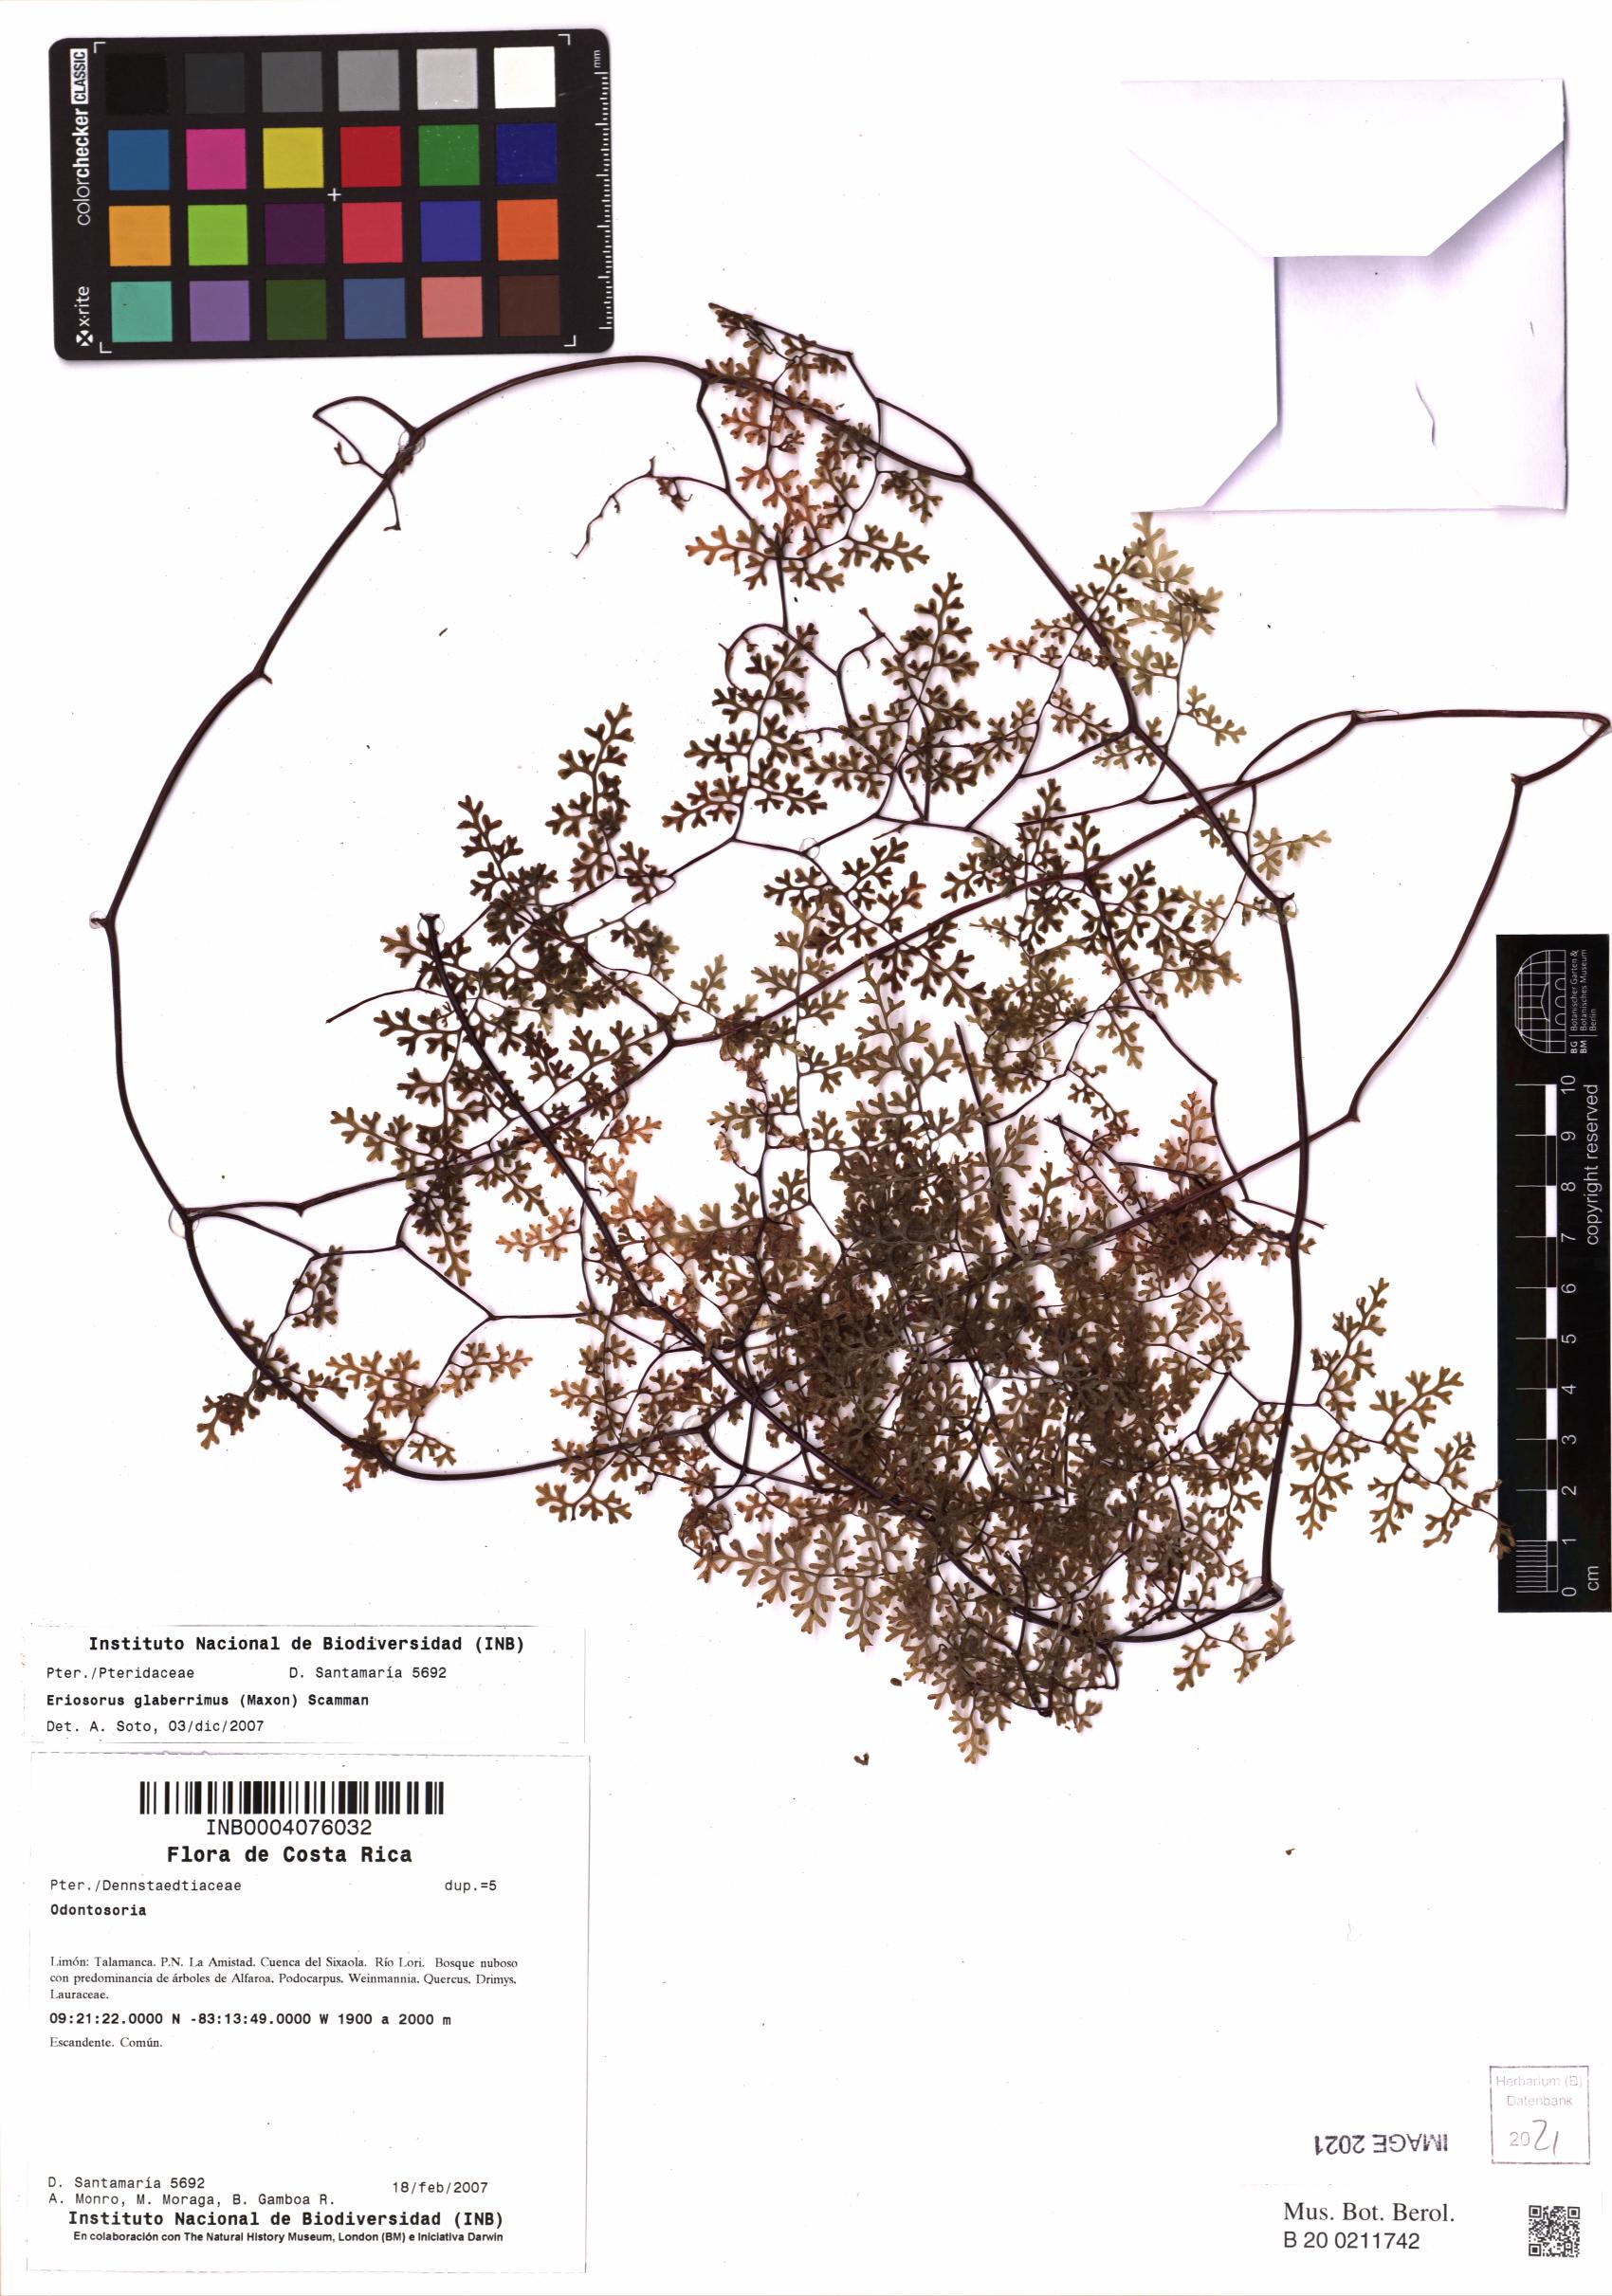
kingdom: Plantae
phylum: Tracheophyta
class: Polypodiopsida
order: Polypodiales
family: Pteridaceae
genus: Jamesonia
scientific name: Jamesonia glaberrima
